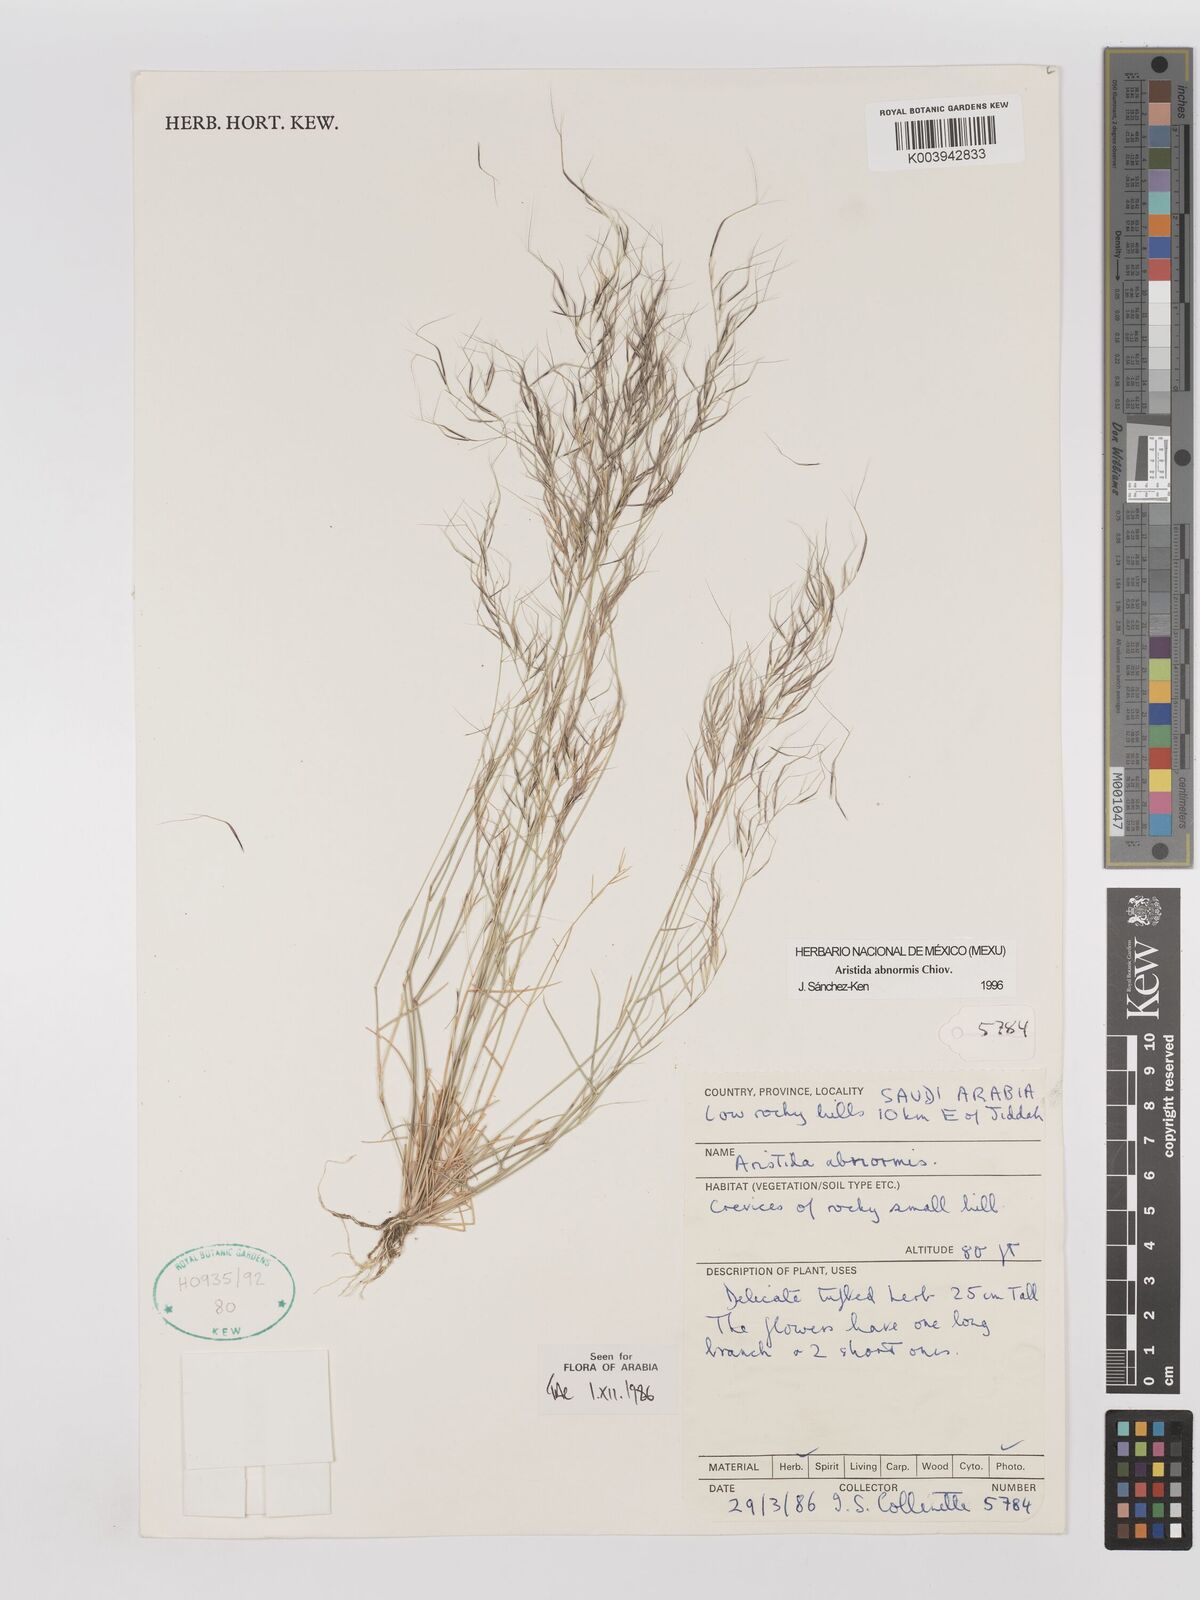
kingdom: Plantae
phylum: Tracheophyta
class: Liliopsida
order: Poales
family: Poaceae
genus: Aristida
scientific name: Aristida abnormis
